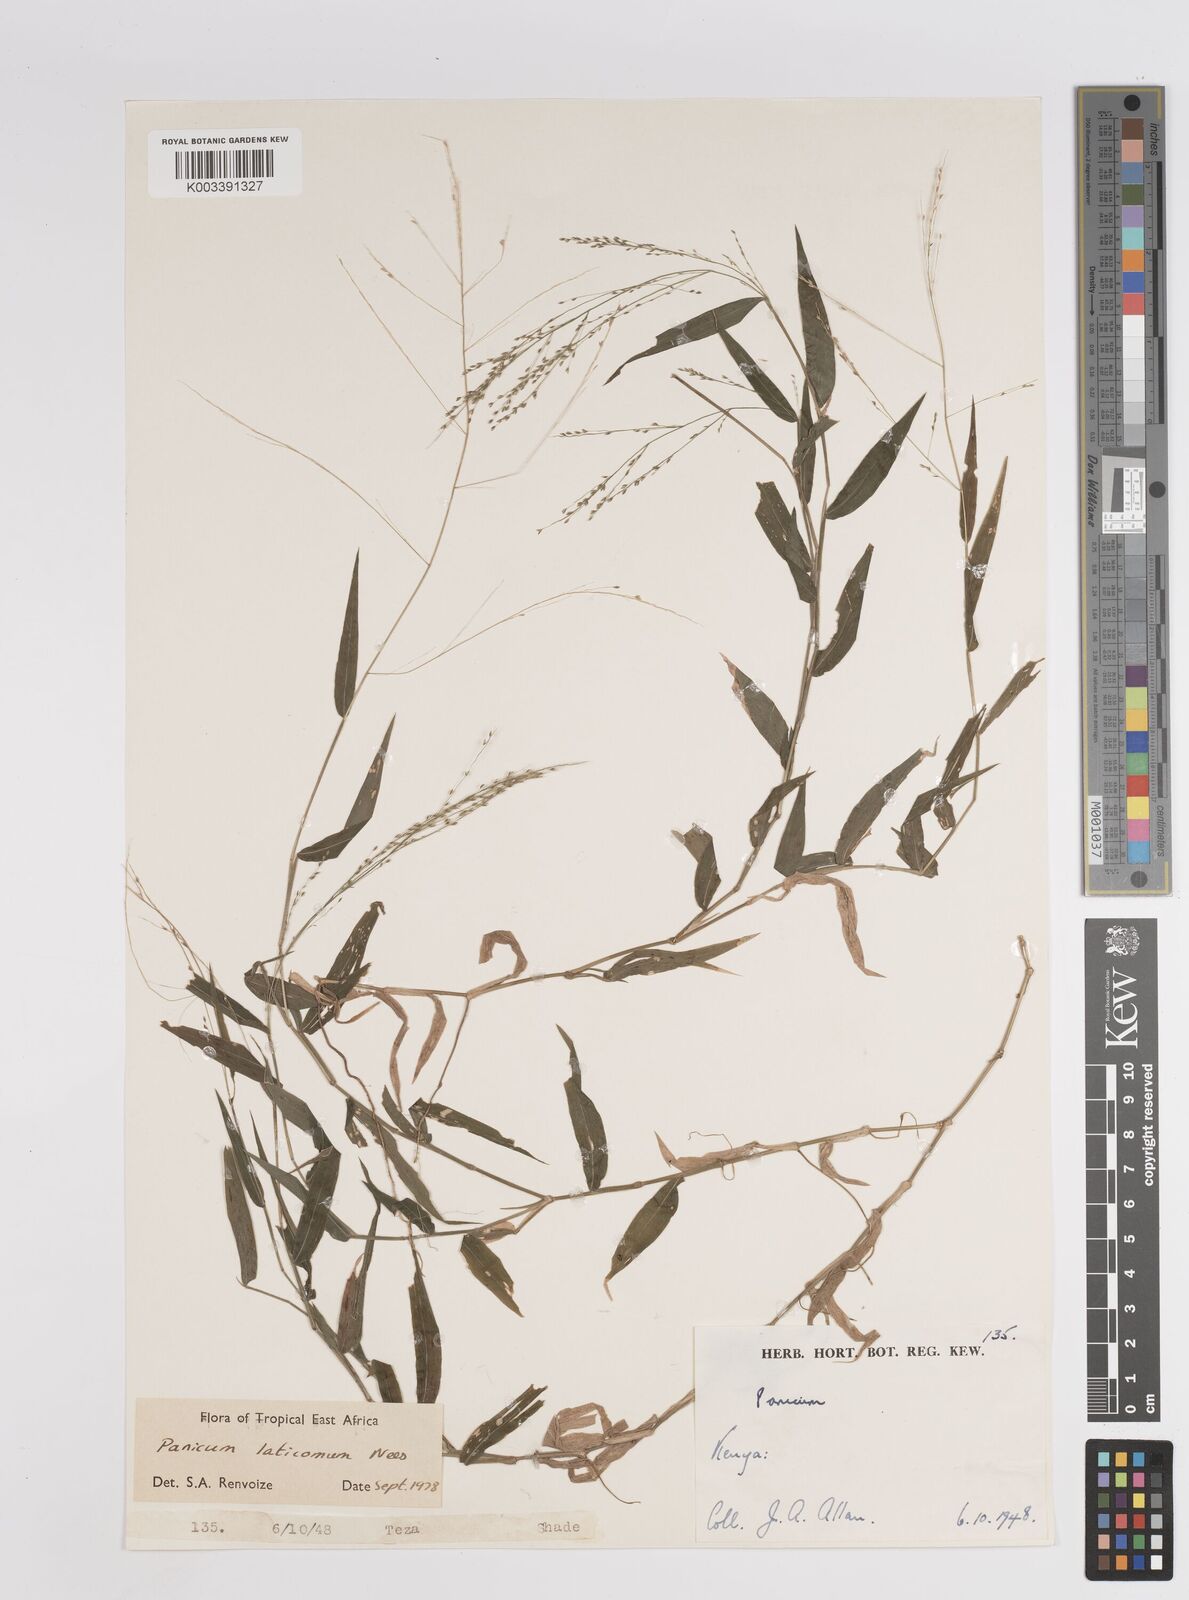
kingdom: Plantae
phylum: Tracheophyta
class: Liliopsida
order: Poales
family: Poaceae
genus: Panicum
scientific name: Panicum laticomum
